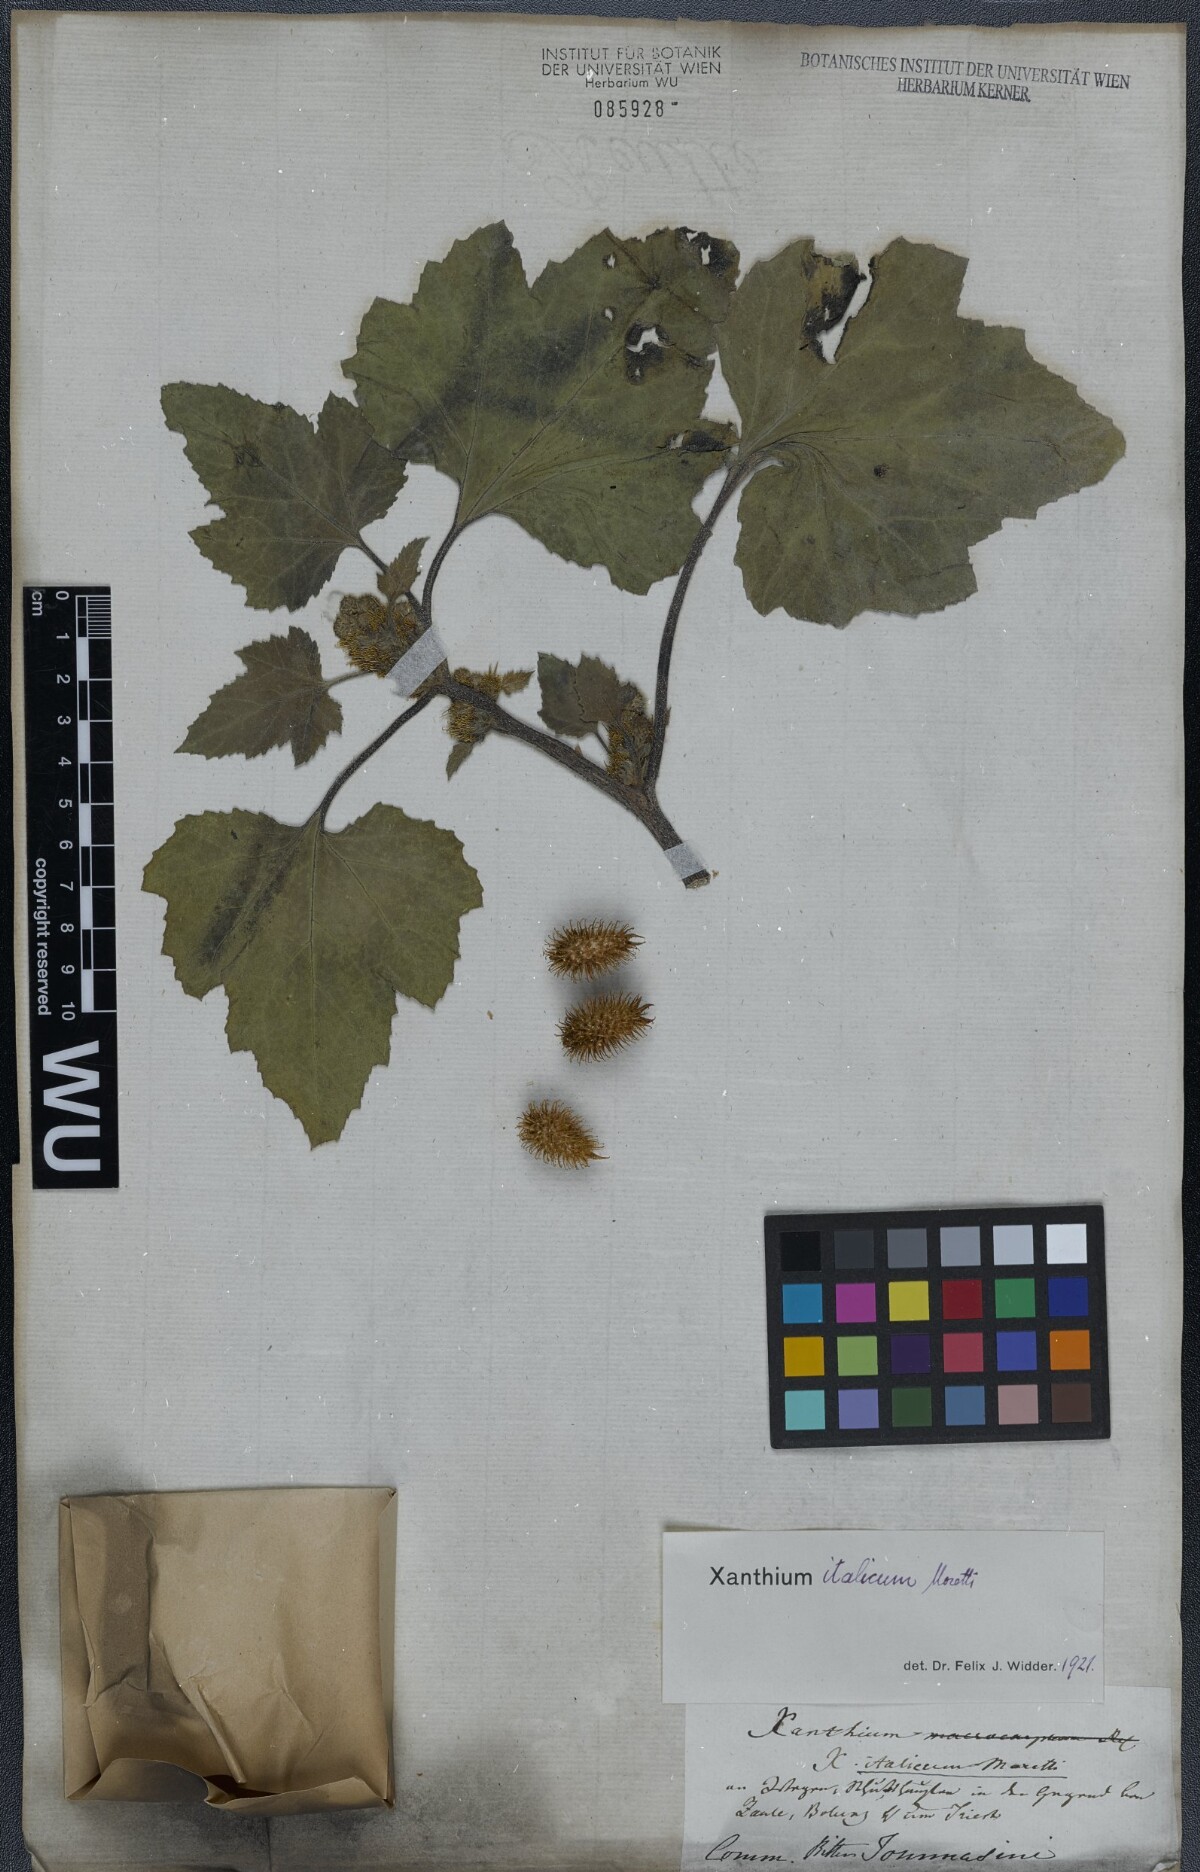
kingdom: Plantae
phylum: Tracheophyta
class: Magnoliopsida
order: Asterales
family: Asteraceae
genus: Xanthium
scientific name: Xanthium orientale
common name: Californian burr
